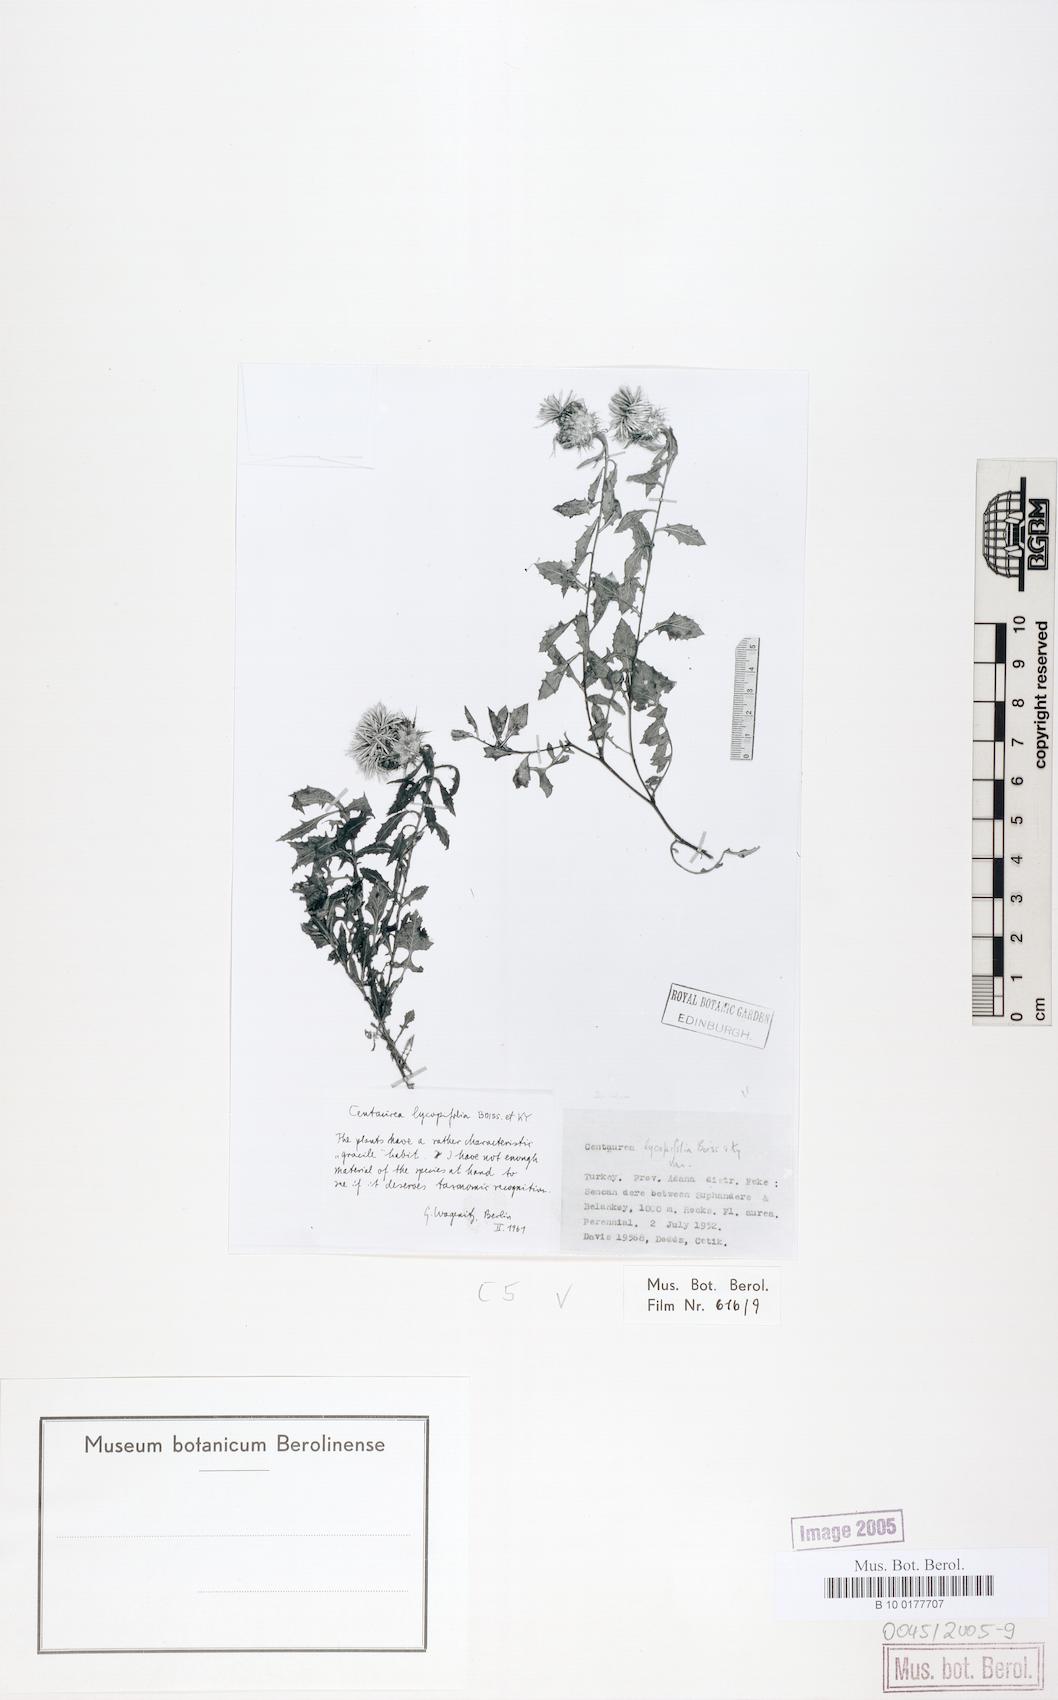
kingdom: Plantae
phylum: Tracheophyta
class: Magnoliopsida
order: Asterales
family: Asteraceae
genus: Centaurea
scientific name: Centaurea lycopifolia
